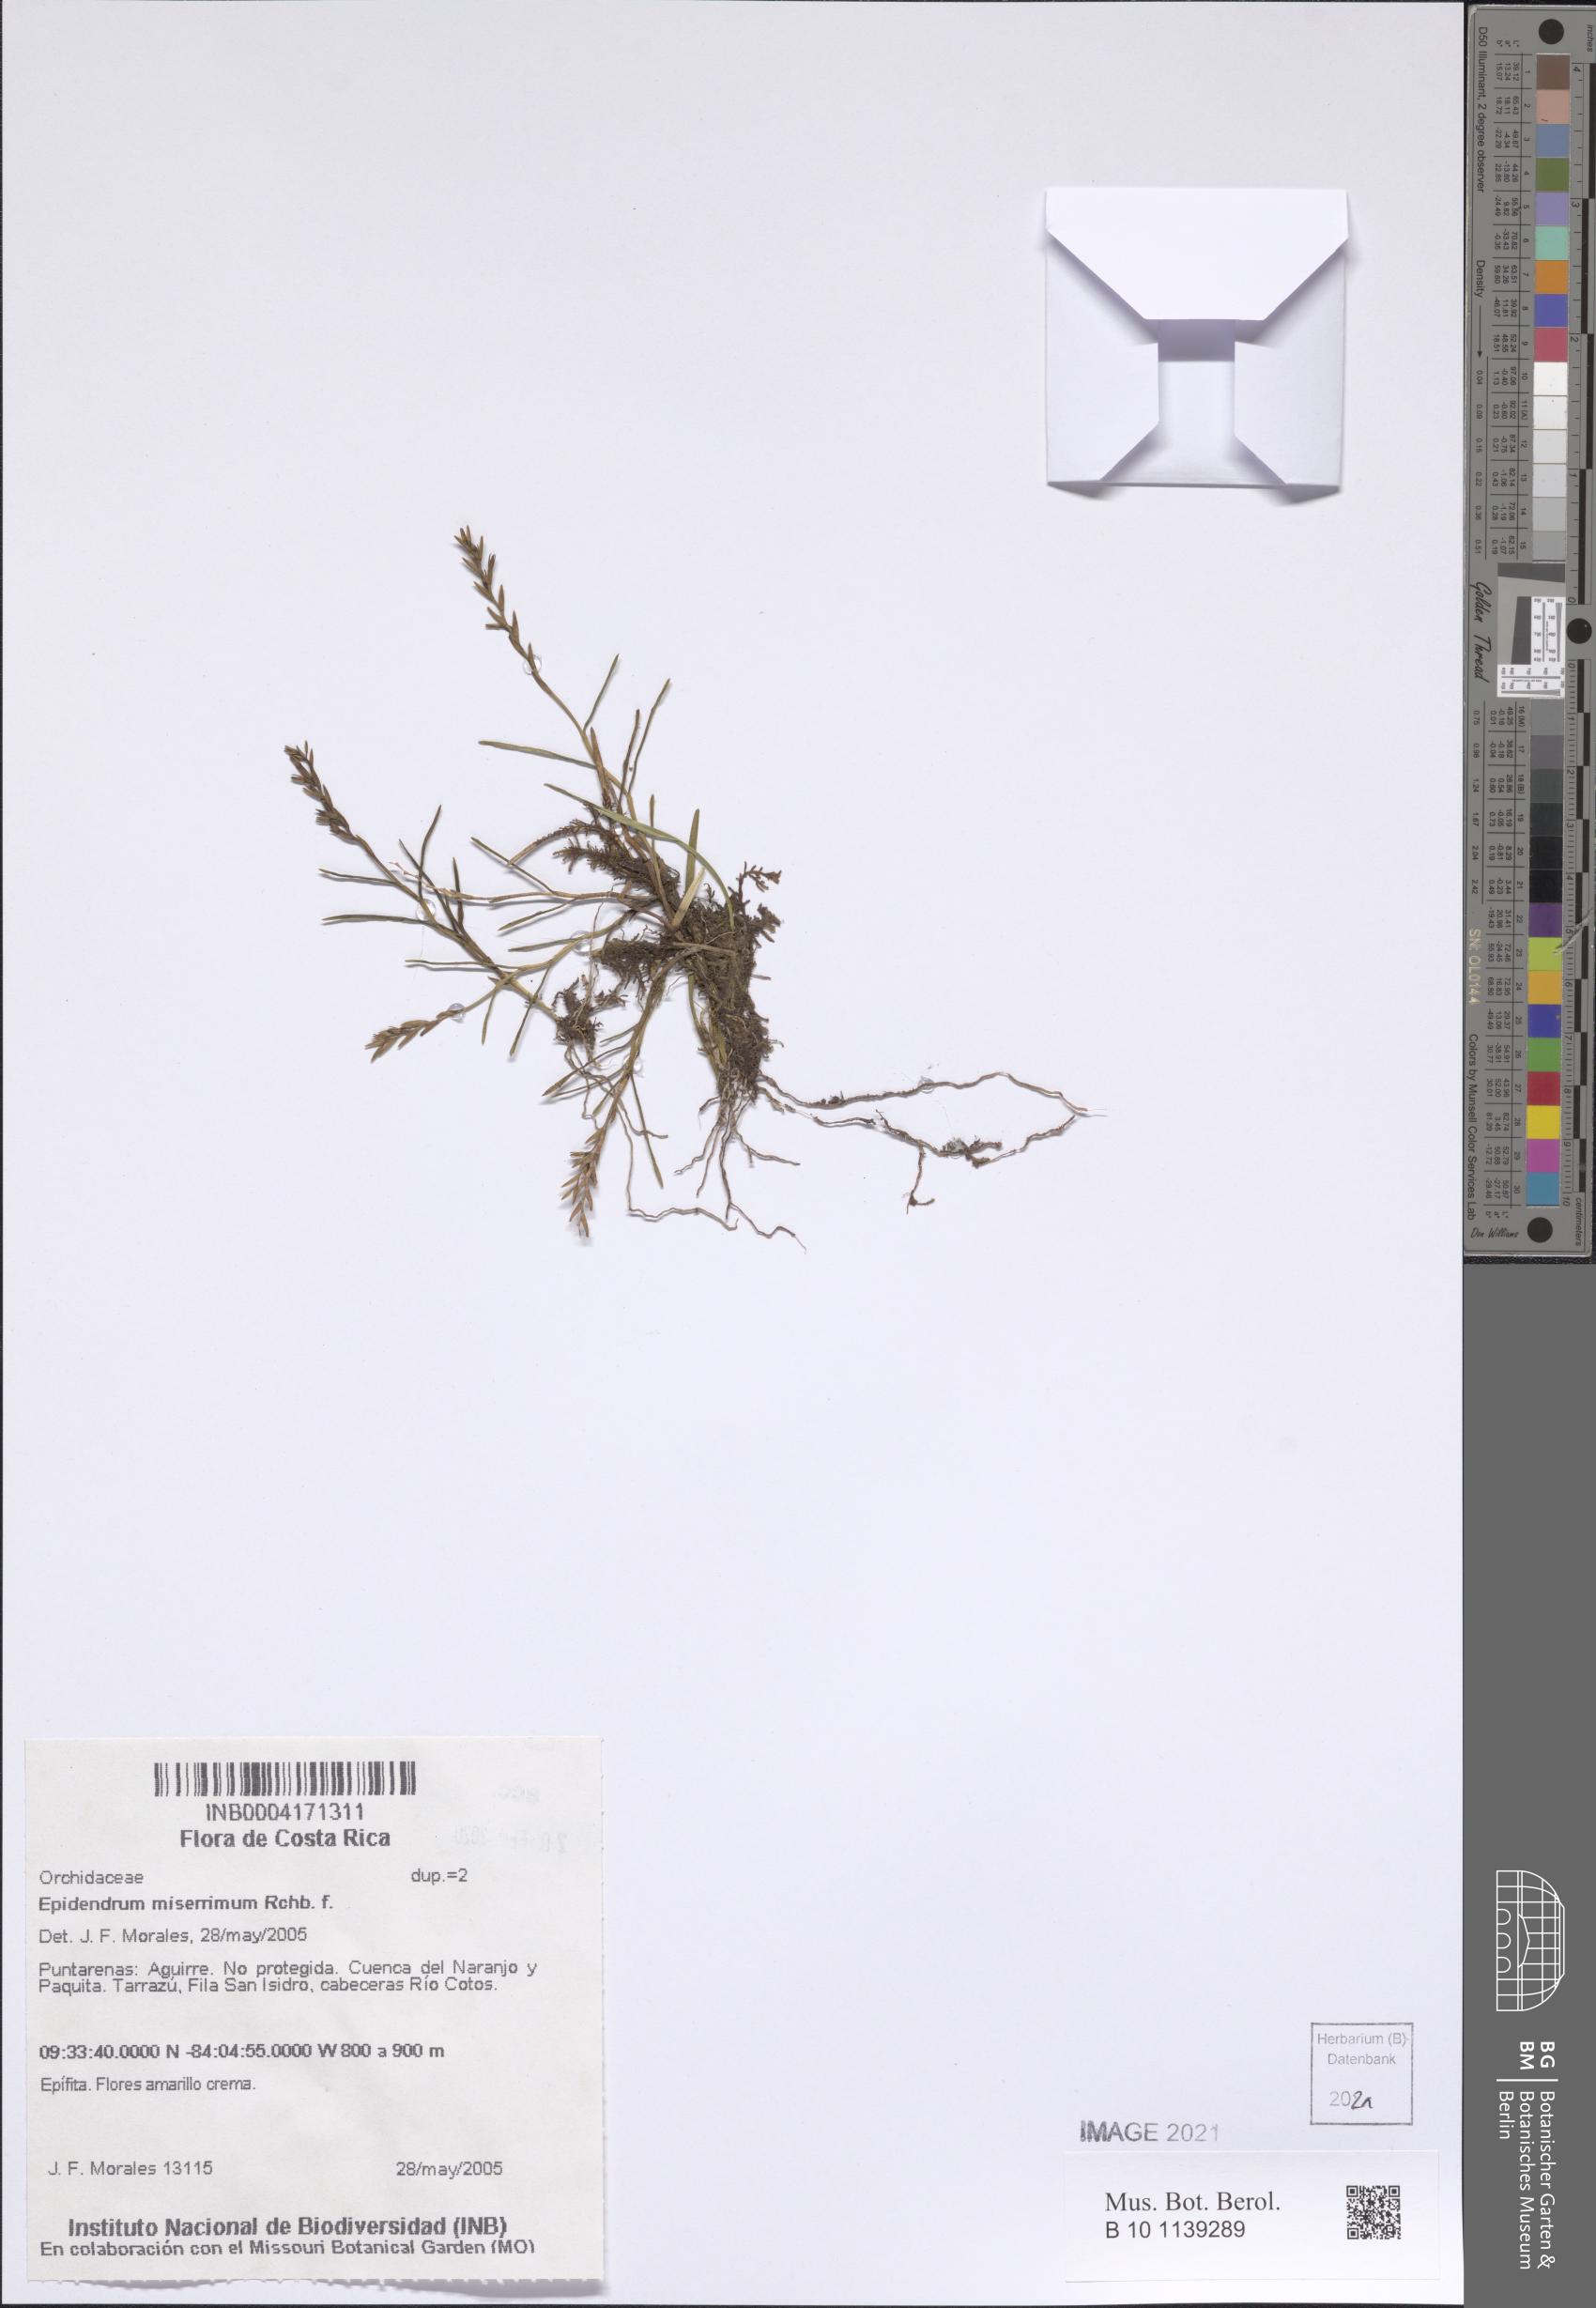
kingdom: Plantae
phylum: Tracheophyta
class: Liliopsida
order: Asparagales
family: Orchidaceae
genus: Epidendrum
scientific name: Epidendrum miserrimum
